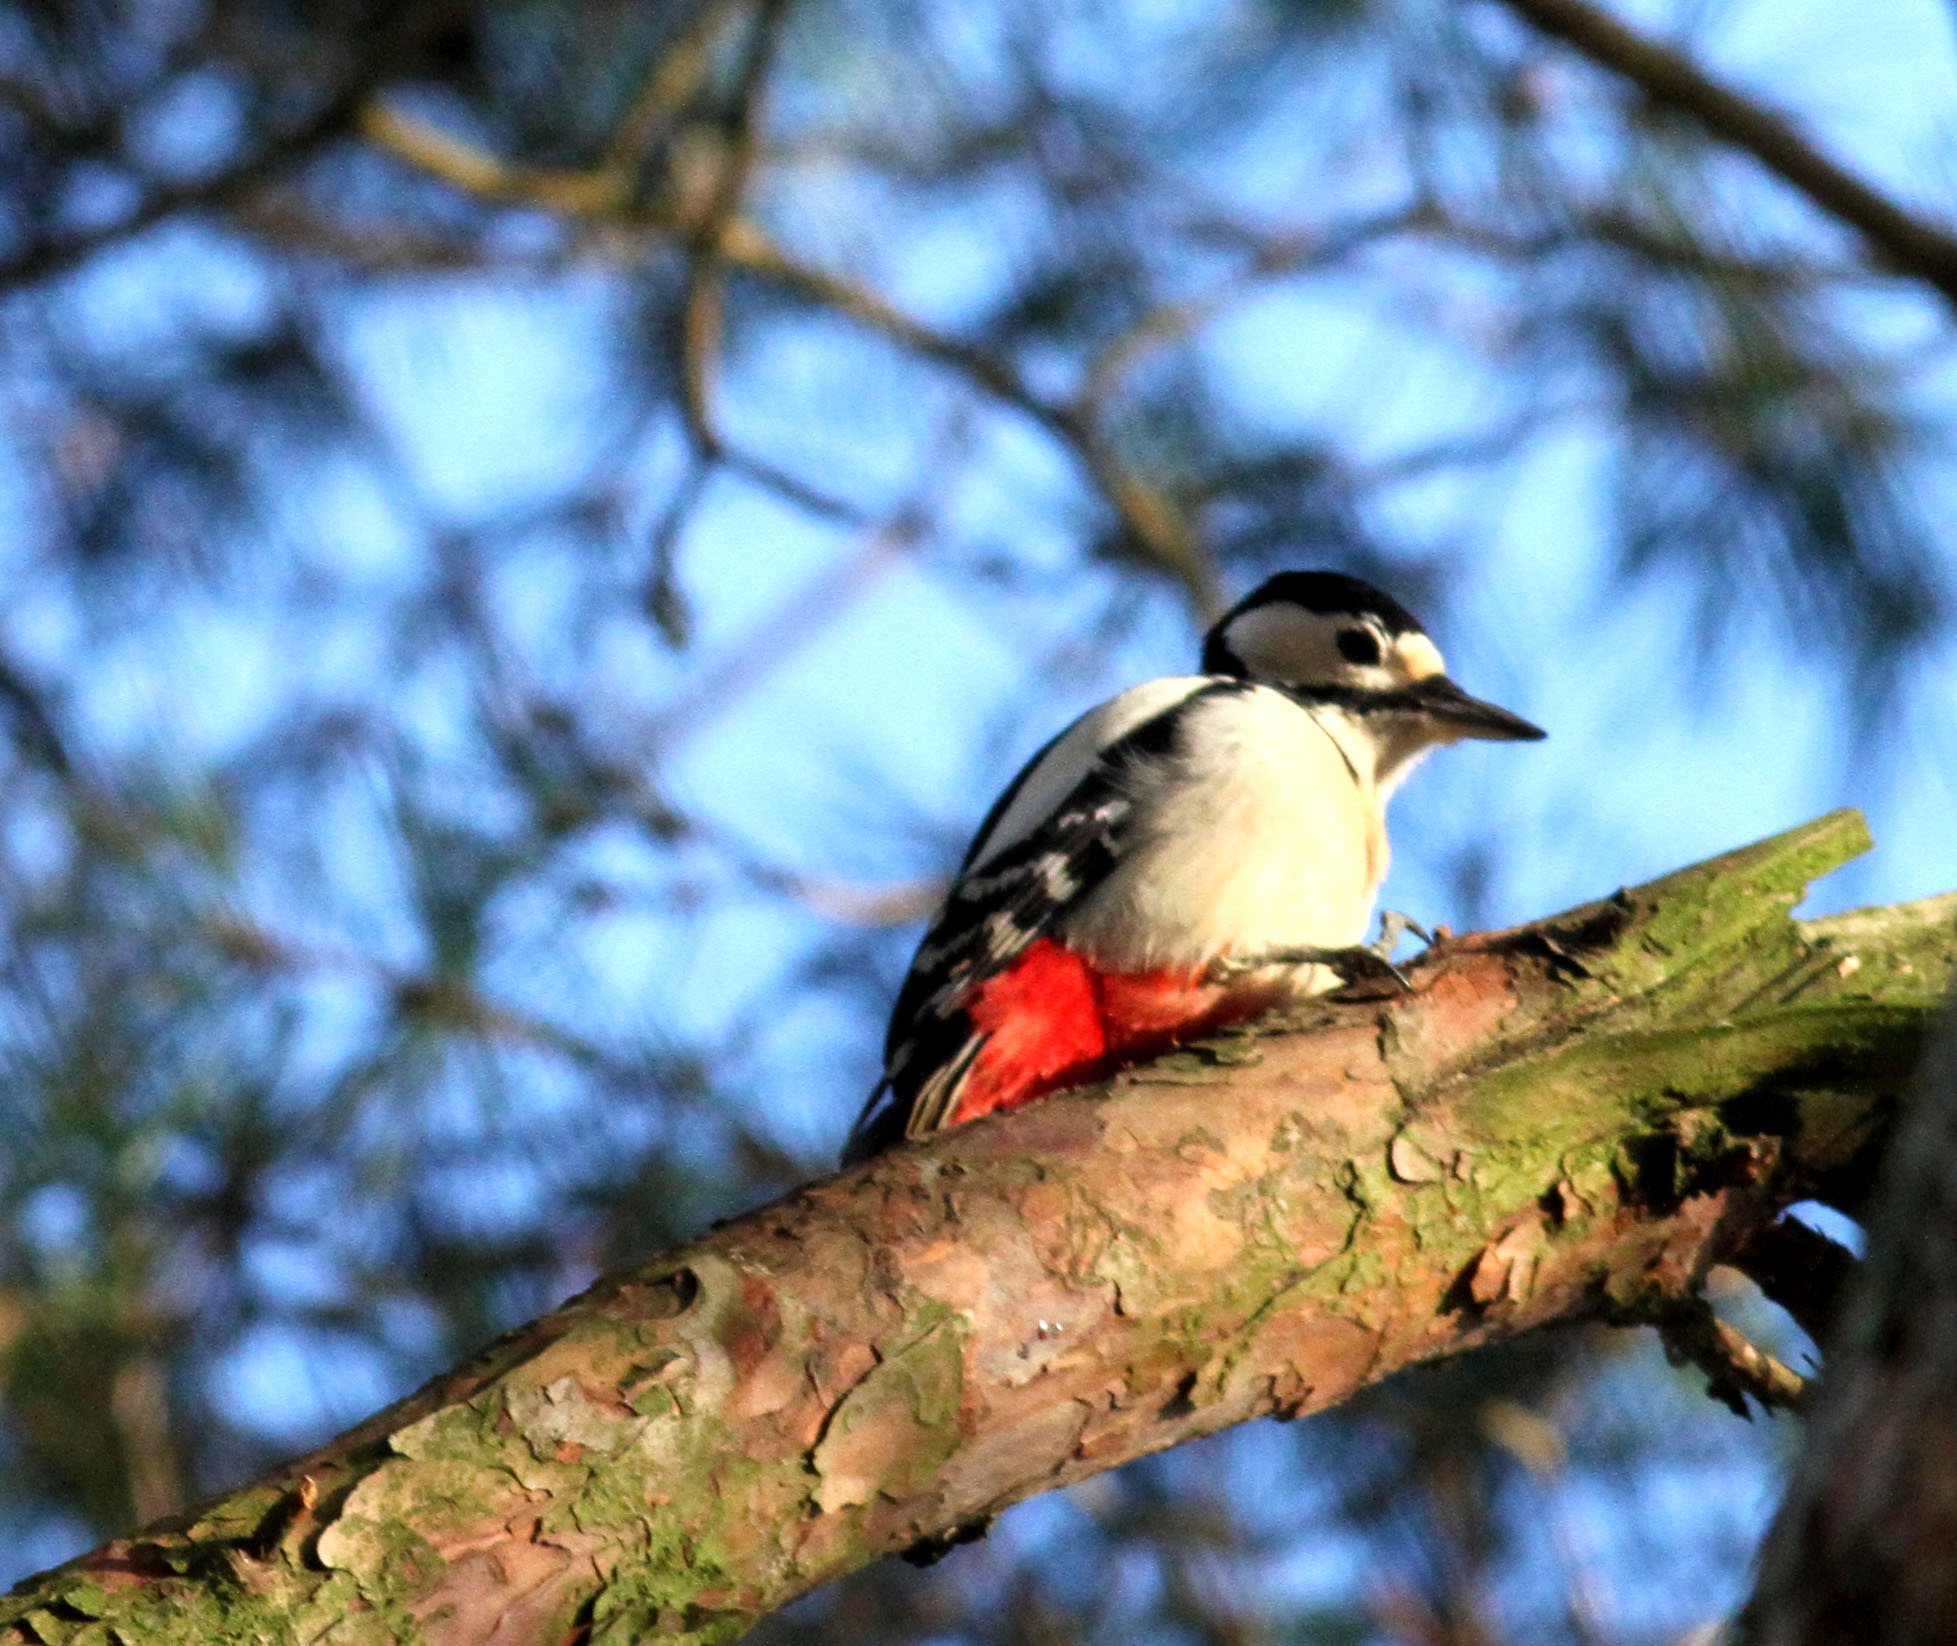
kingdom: Animalia
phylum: Chordata
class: Aves
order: Piciformes
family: Picidae
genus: Dendrocopos
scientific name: Dendrocopos major
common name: Stor flagspætte
